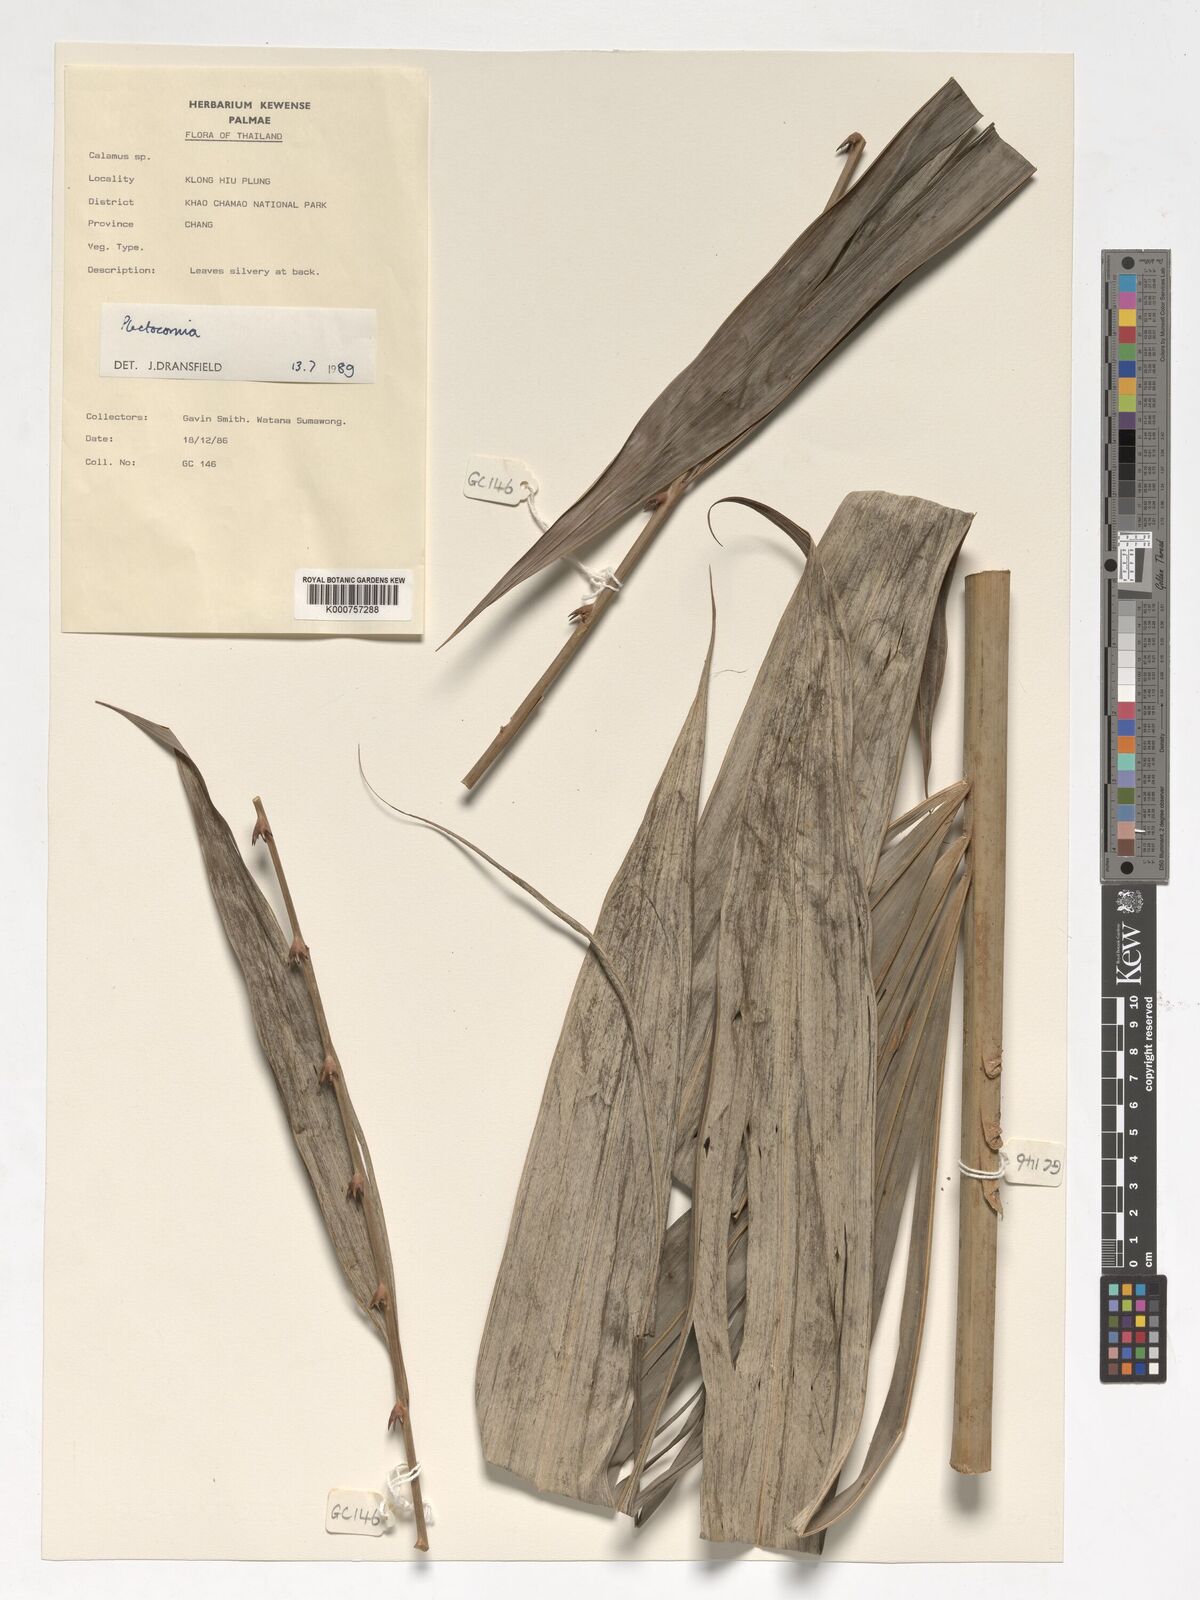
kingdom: Plantae
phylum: Tracheophyta
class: Liliopsida
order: Arecales
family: Arecaceae
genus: Plectocomia
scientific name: Plectocomia
